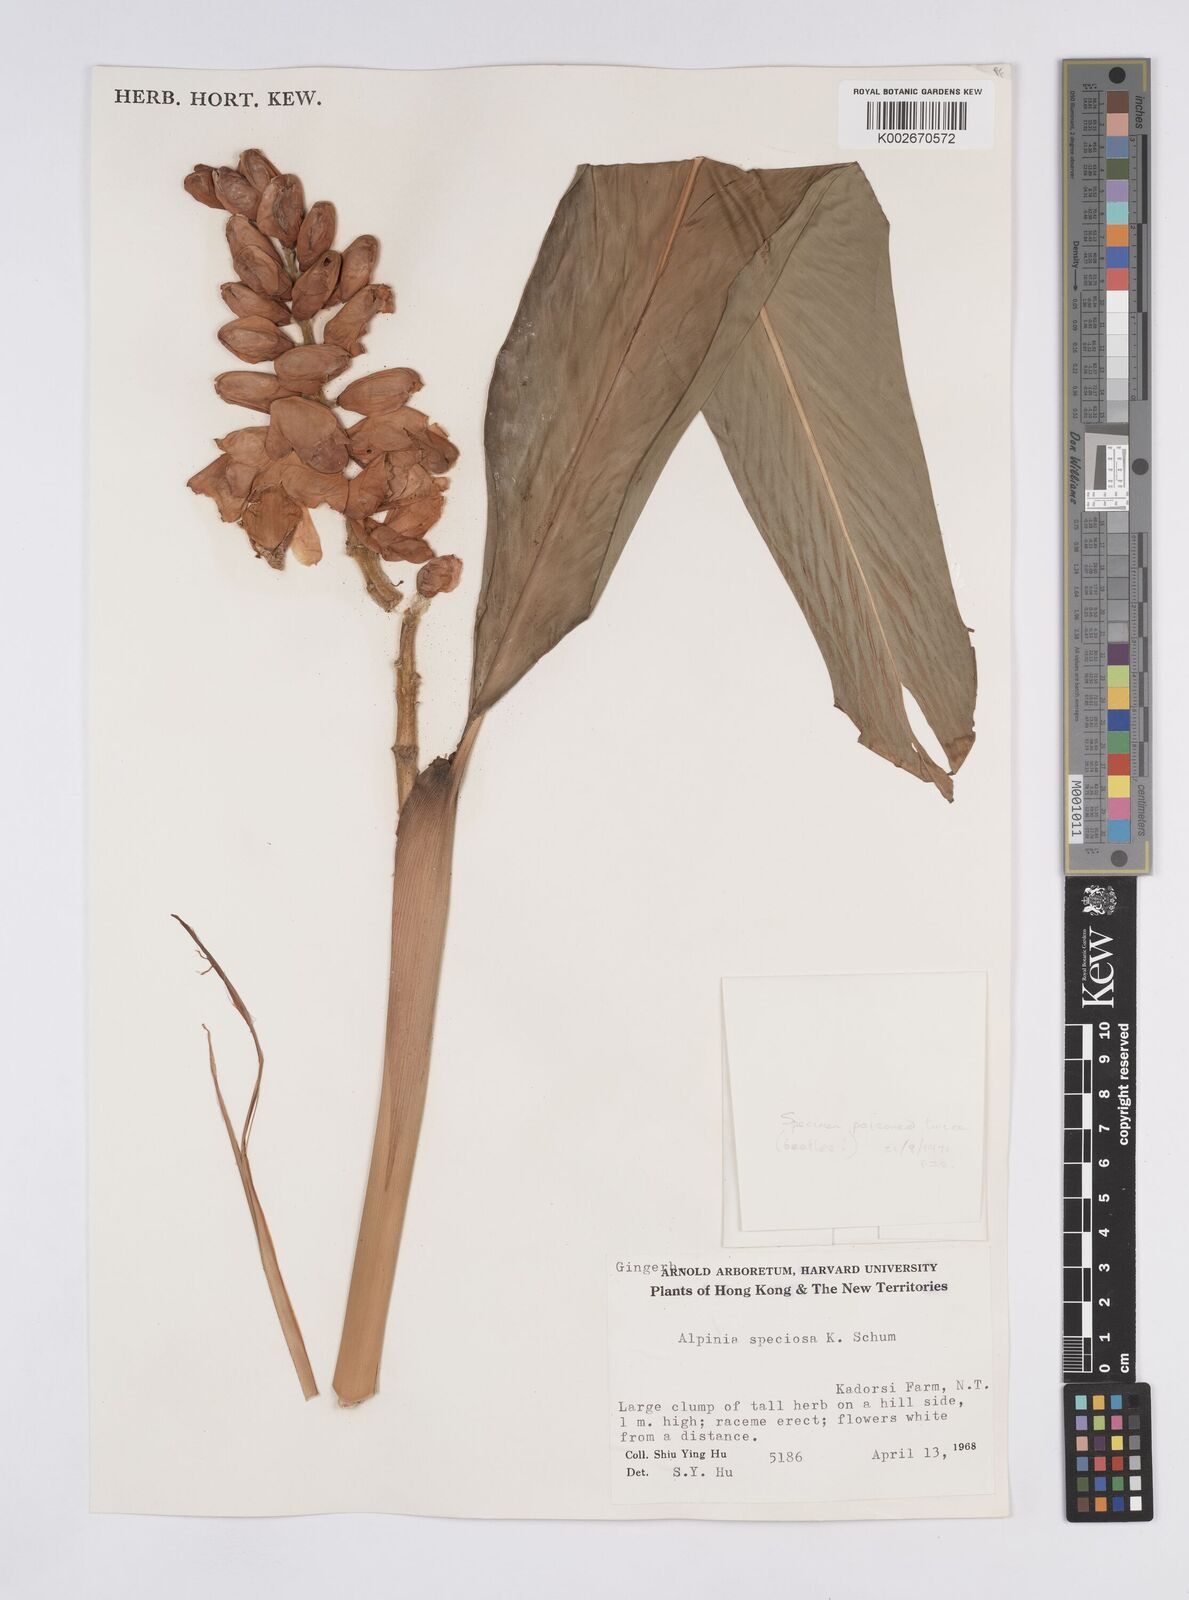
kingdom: Plantae
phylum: Tracheophyta
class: Liliopsida
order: Zingiberales
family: Zingiberaceae
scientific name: Zingiberaceae
